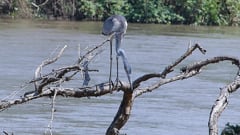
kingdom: Animalia
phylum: Chordata
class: Aves
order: Pelecaniformes
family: Ardeidae
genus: Ardea
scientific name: Ardea melanocephala
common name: Black-headed heron
